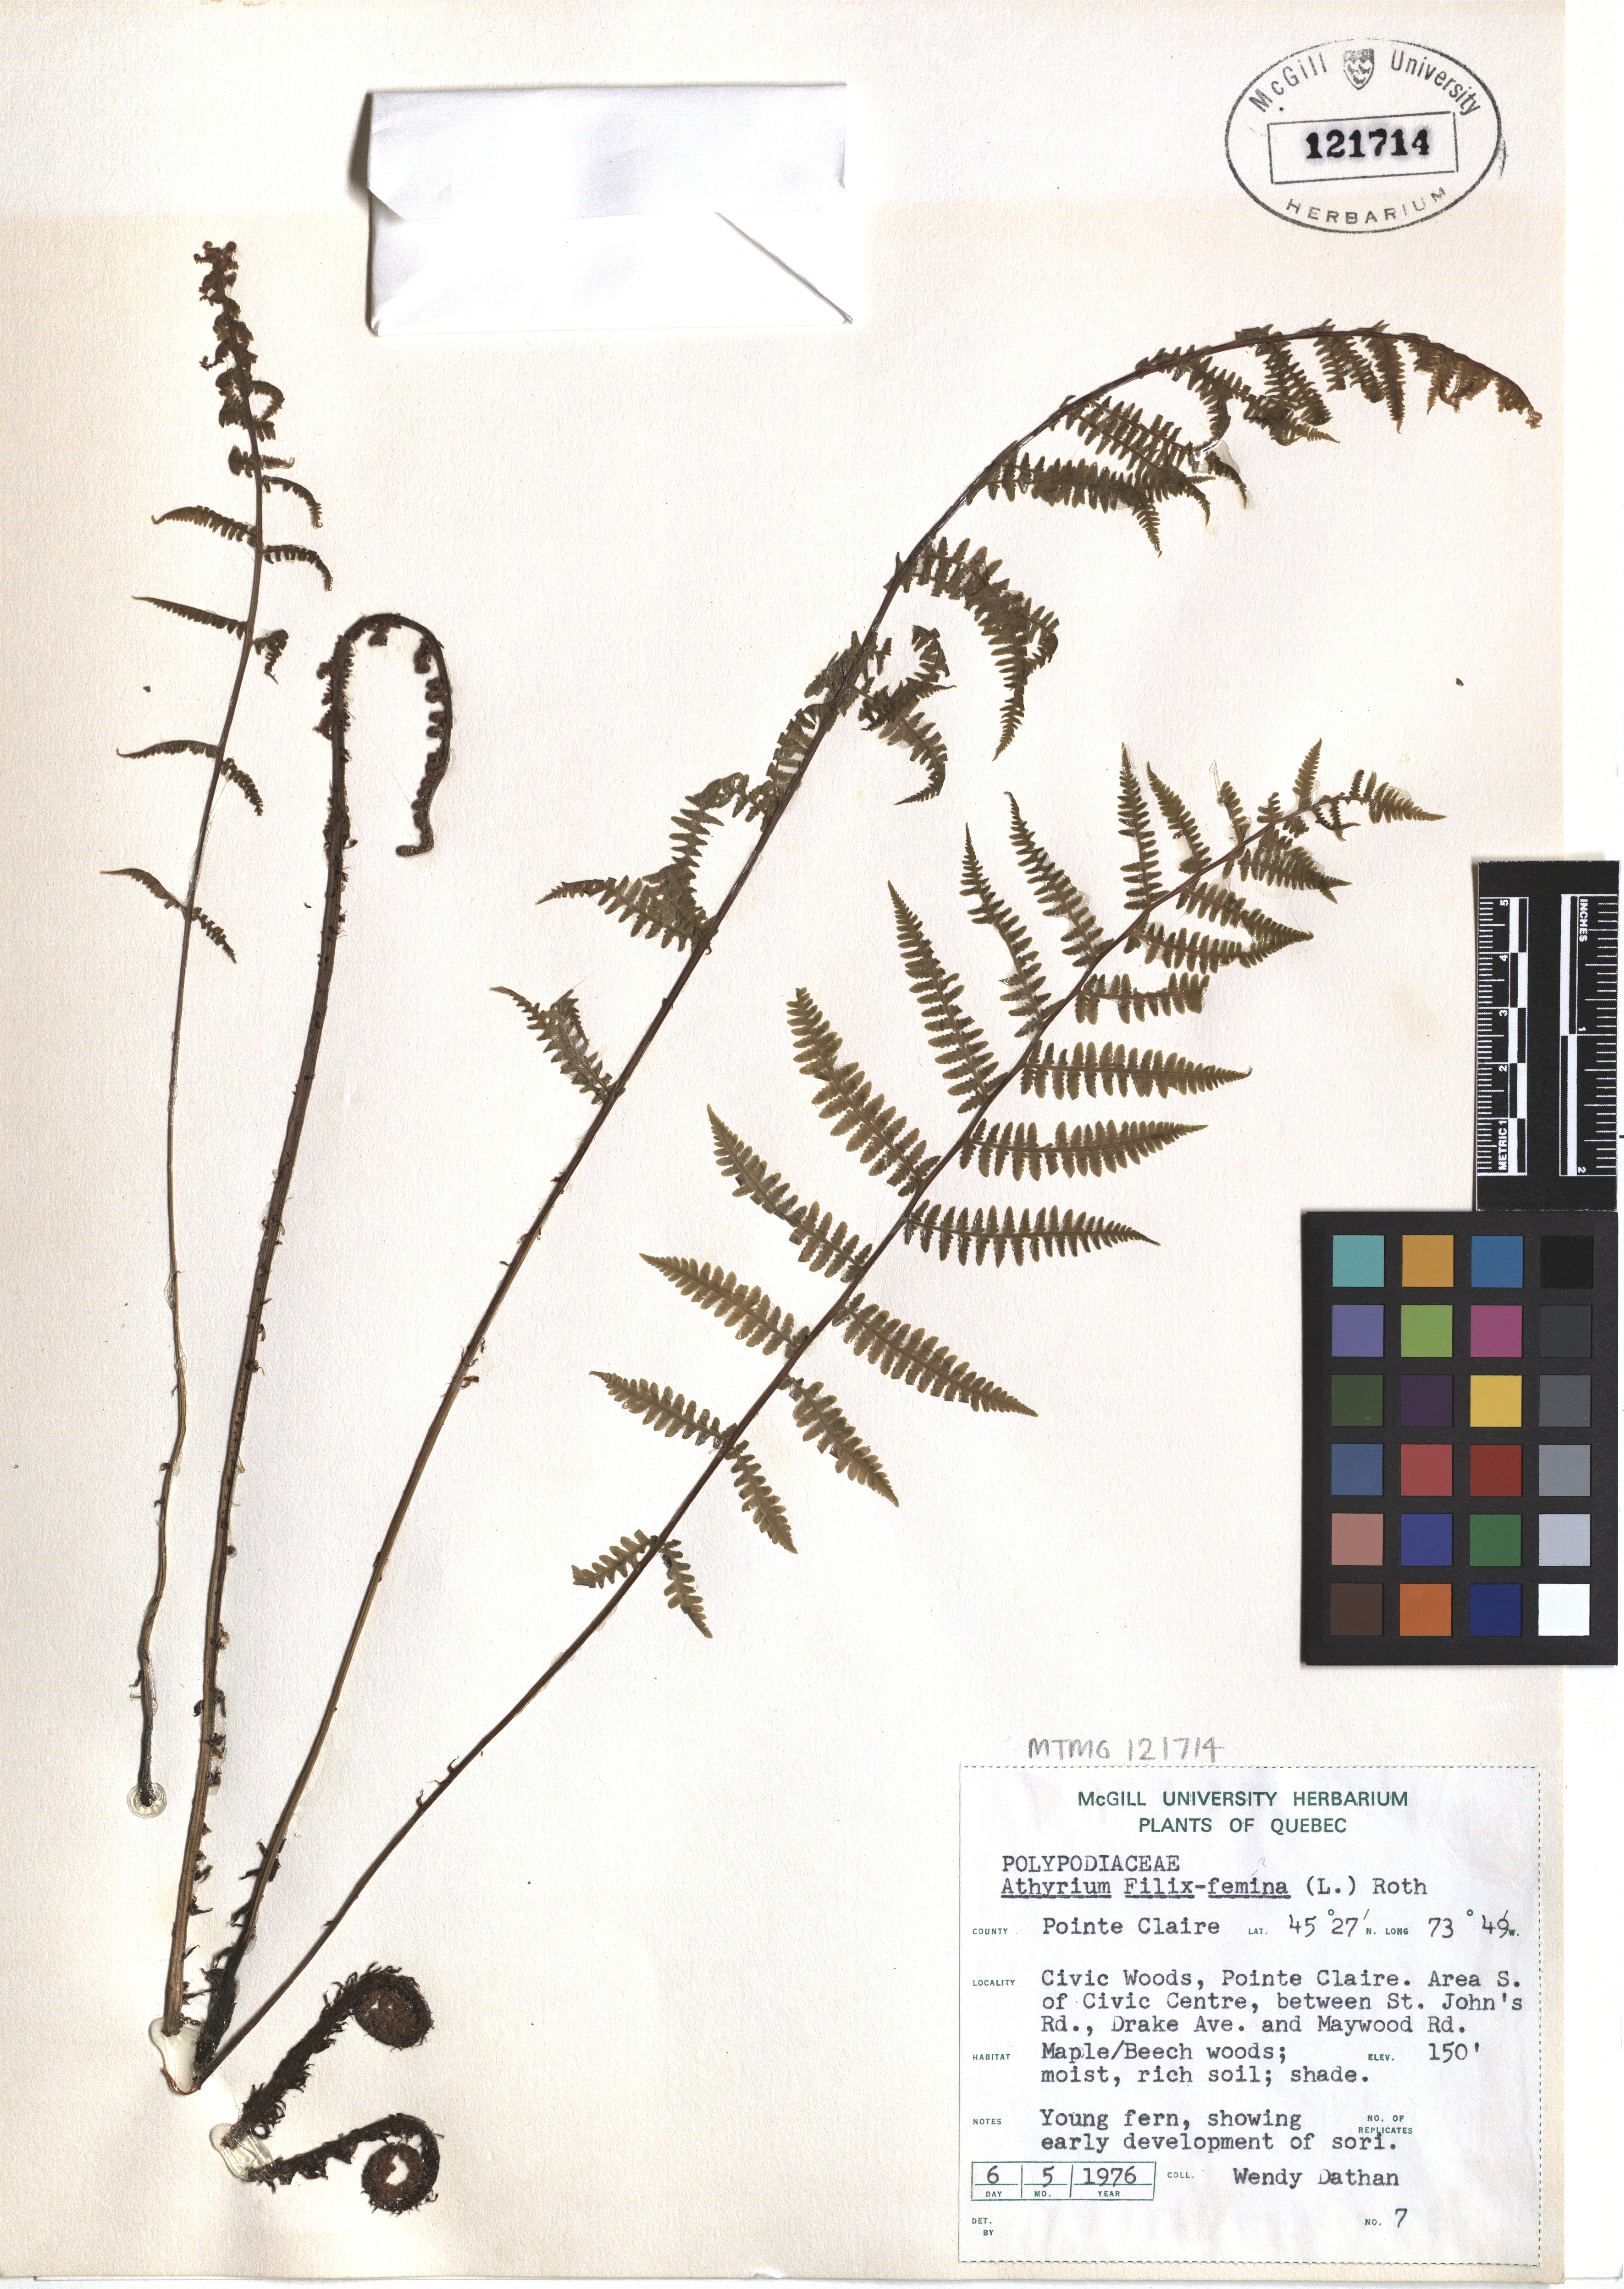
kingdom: Plantae
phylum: Tracheophyta
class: Polypodiopsida
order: Polypodiales
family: Athyriaceae
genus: Athyrium
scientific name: Athyrium filix-femina
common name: Lady fern
